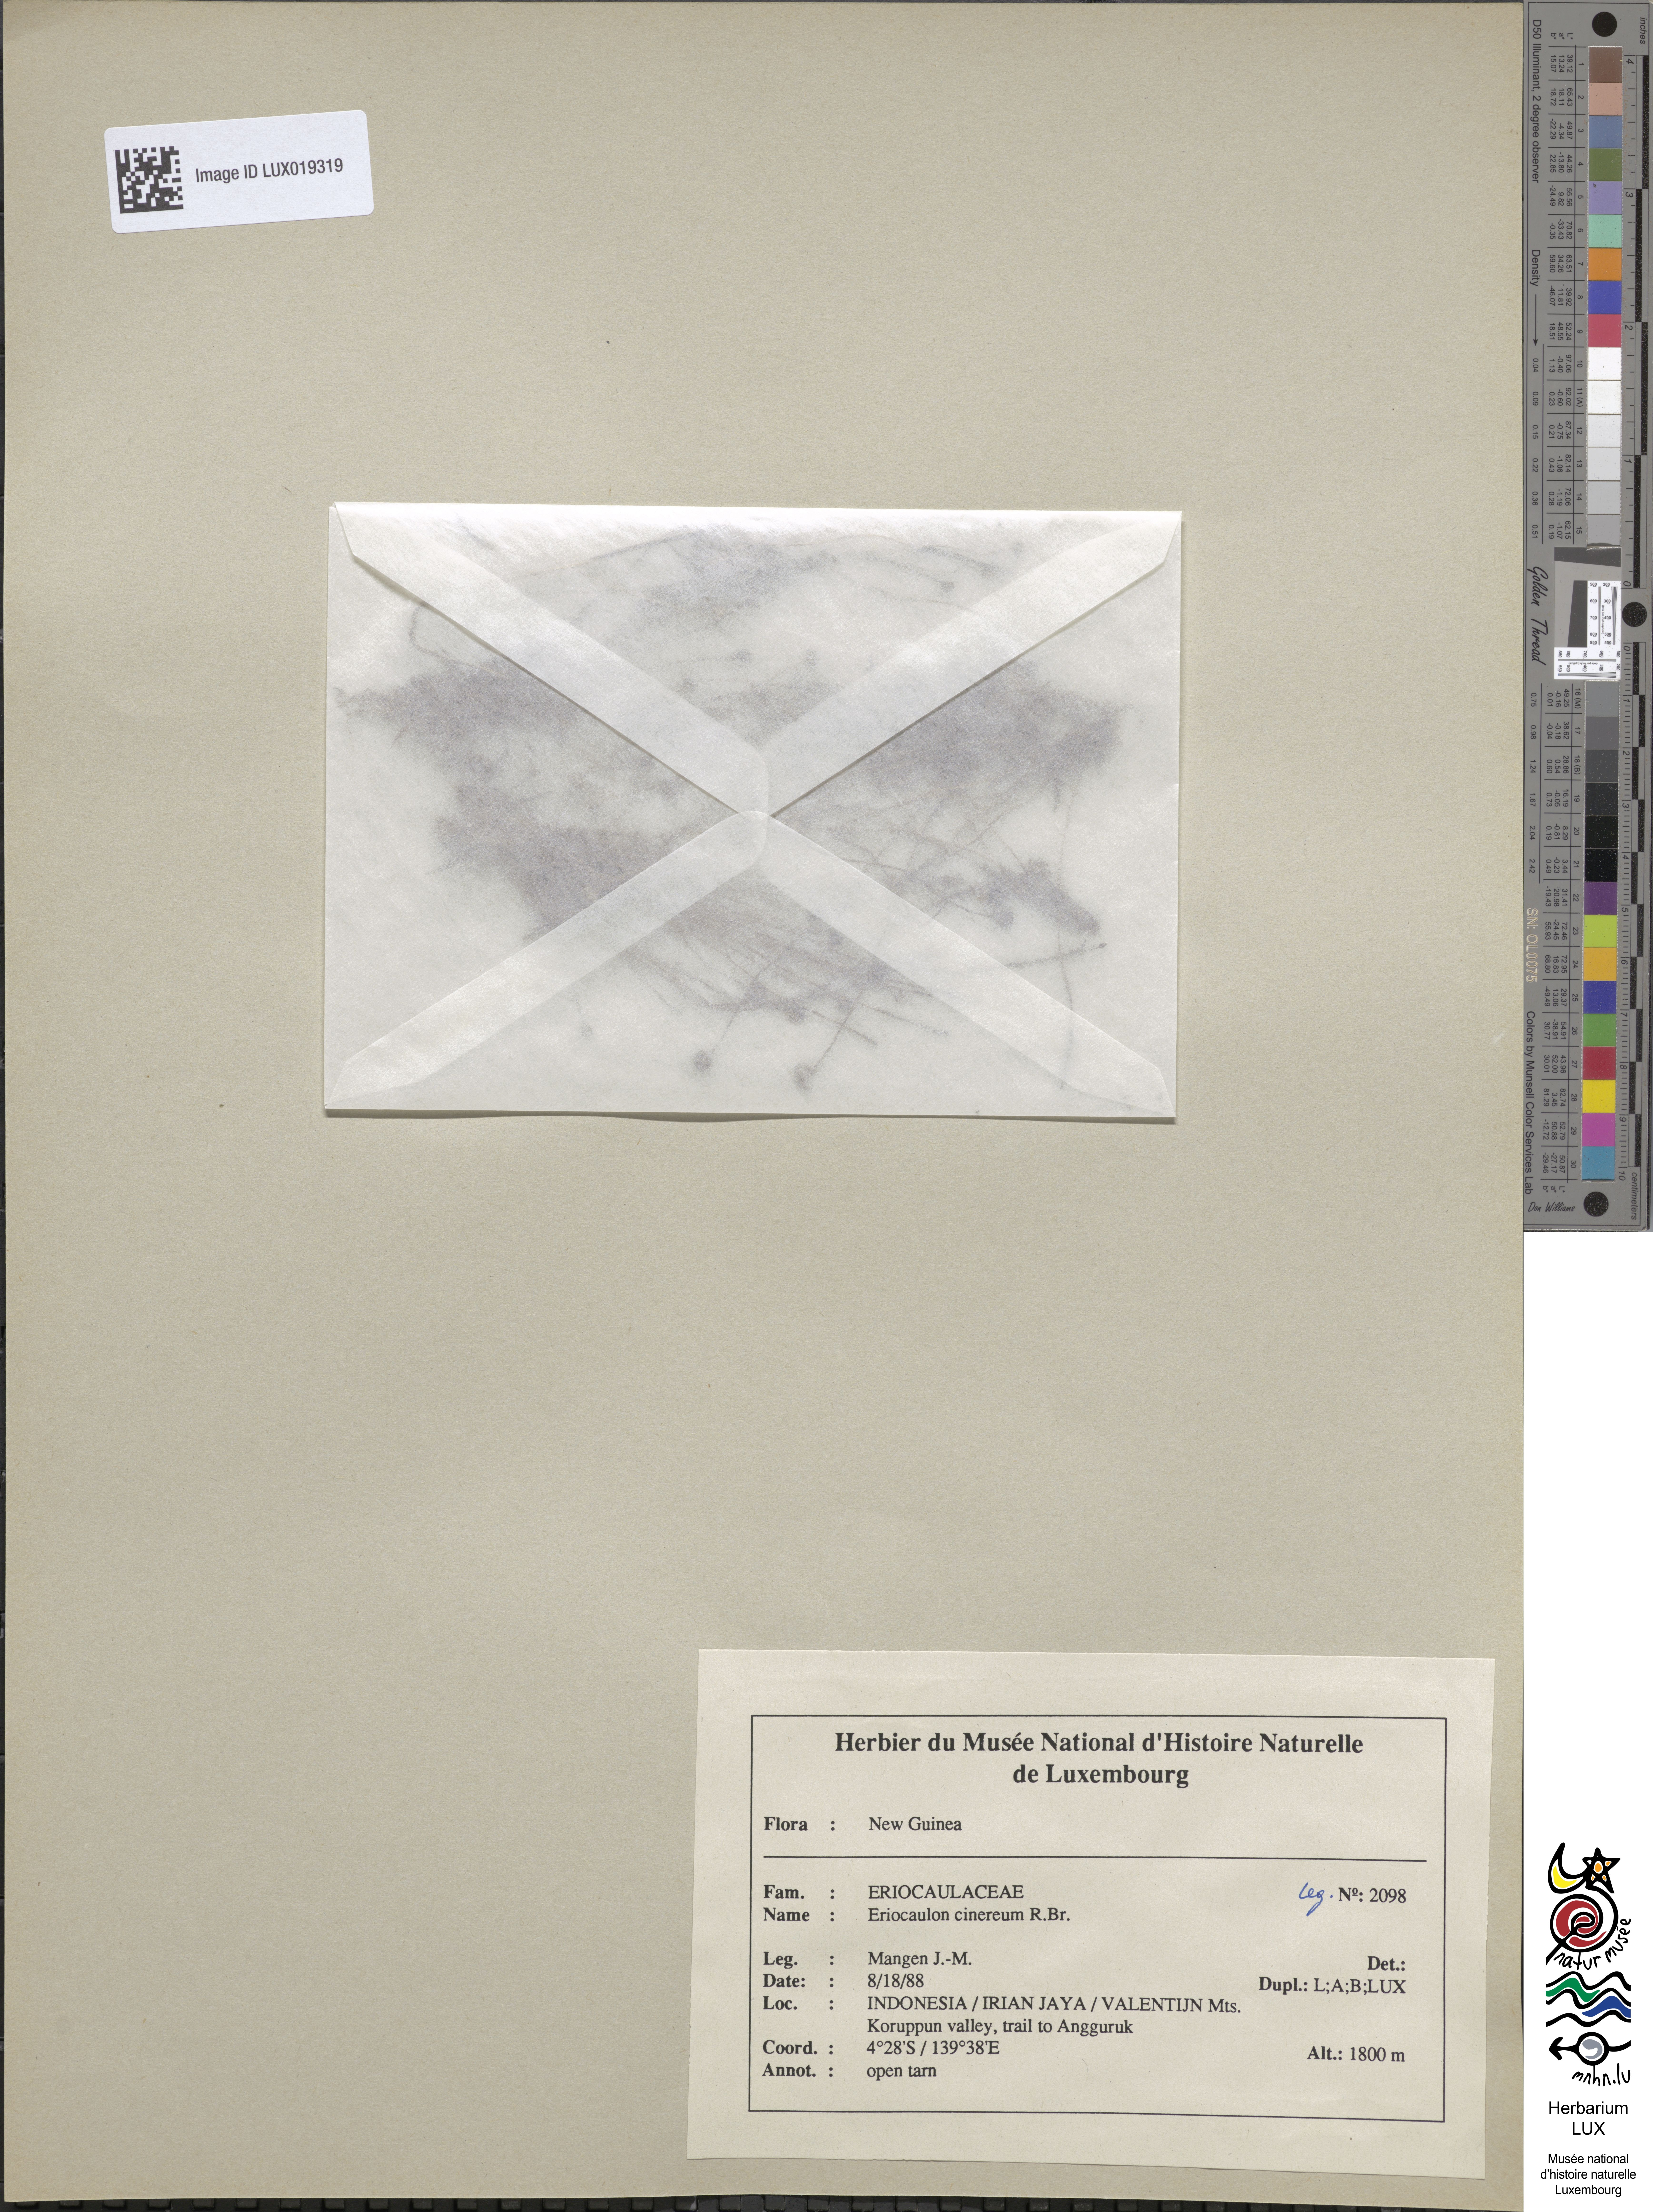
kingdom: Plantae
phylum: Tracheophyta
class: Liliopsida
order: Poales
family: Eriocaulaceae
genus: Eriocaulon
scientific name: Eriocaulon cinereum
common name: Ashy pipewort
